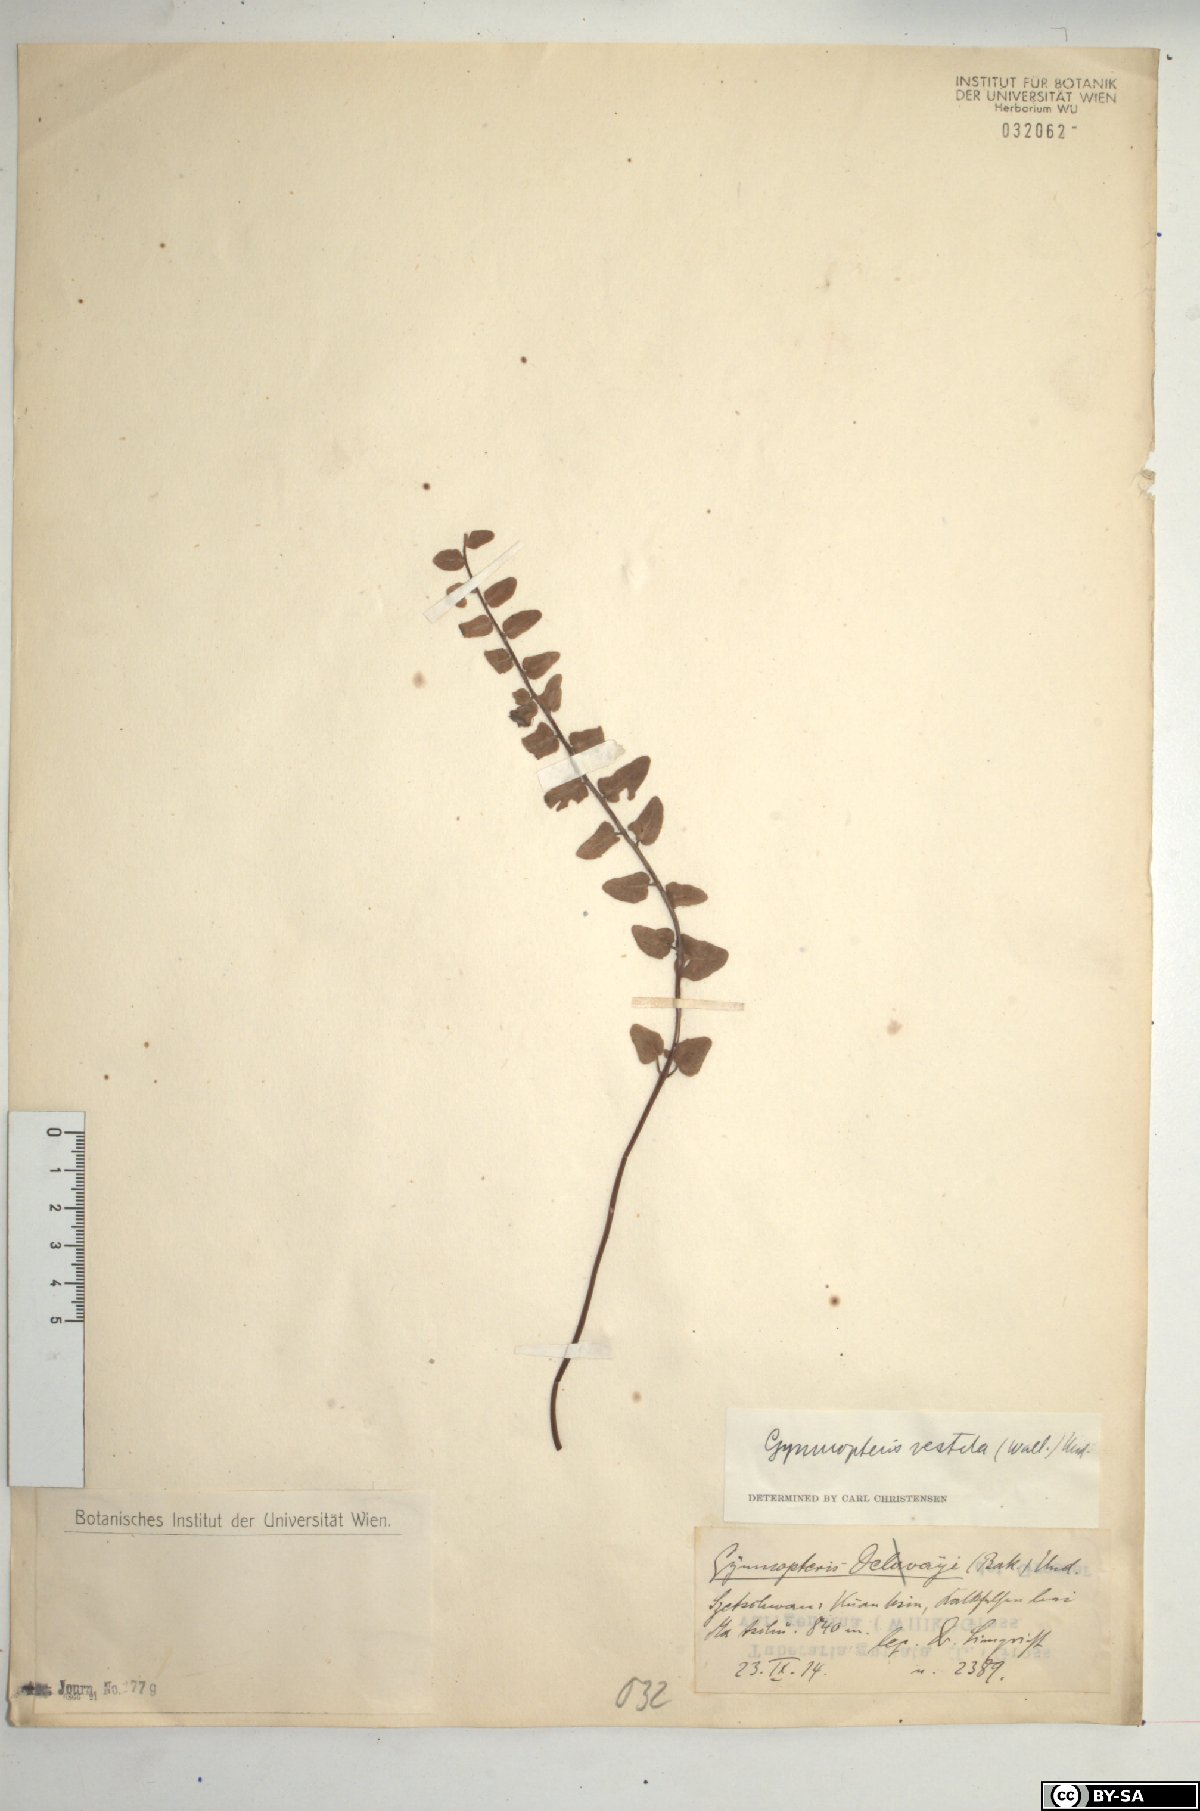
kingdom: Plantae
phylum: Tracheophyta
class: Polypodiopsida
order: Polypodiales
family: Pteridaceae
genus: Paragymnopteris
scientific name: Paragymnopteris vestita
